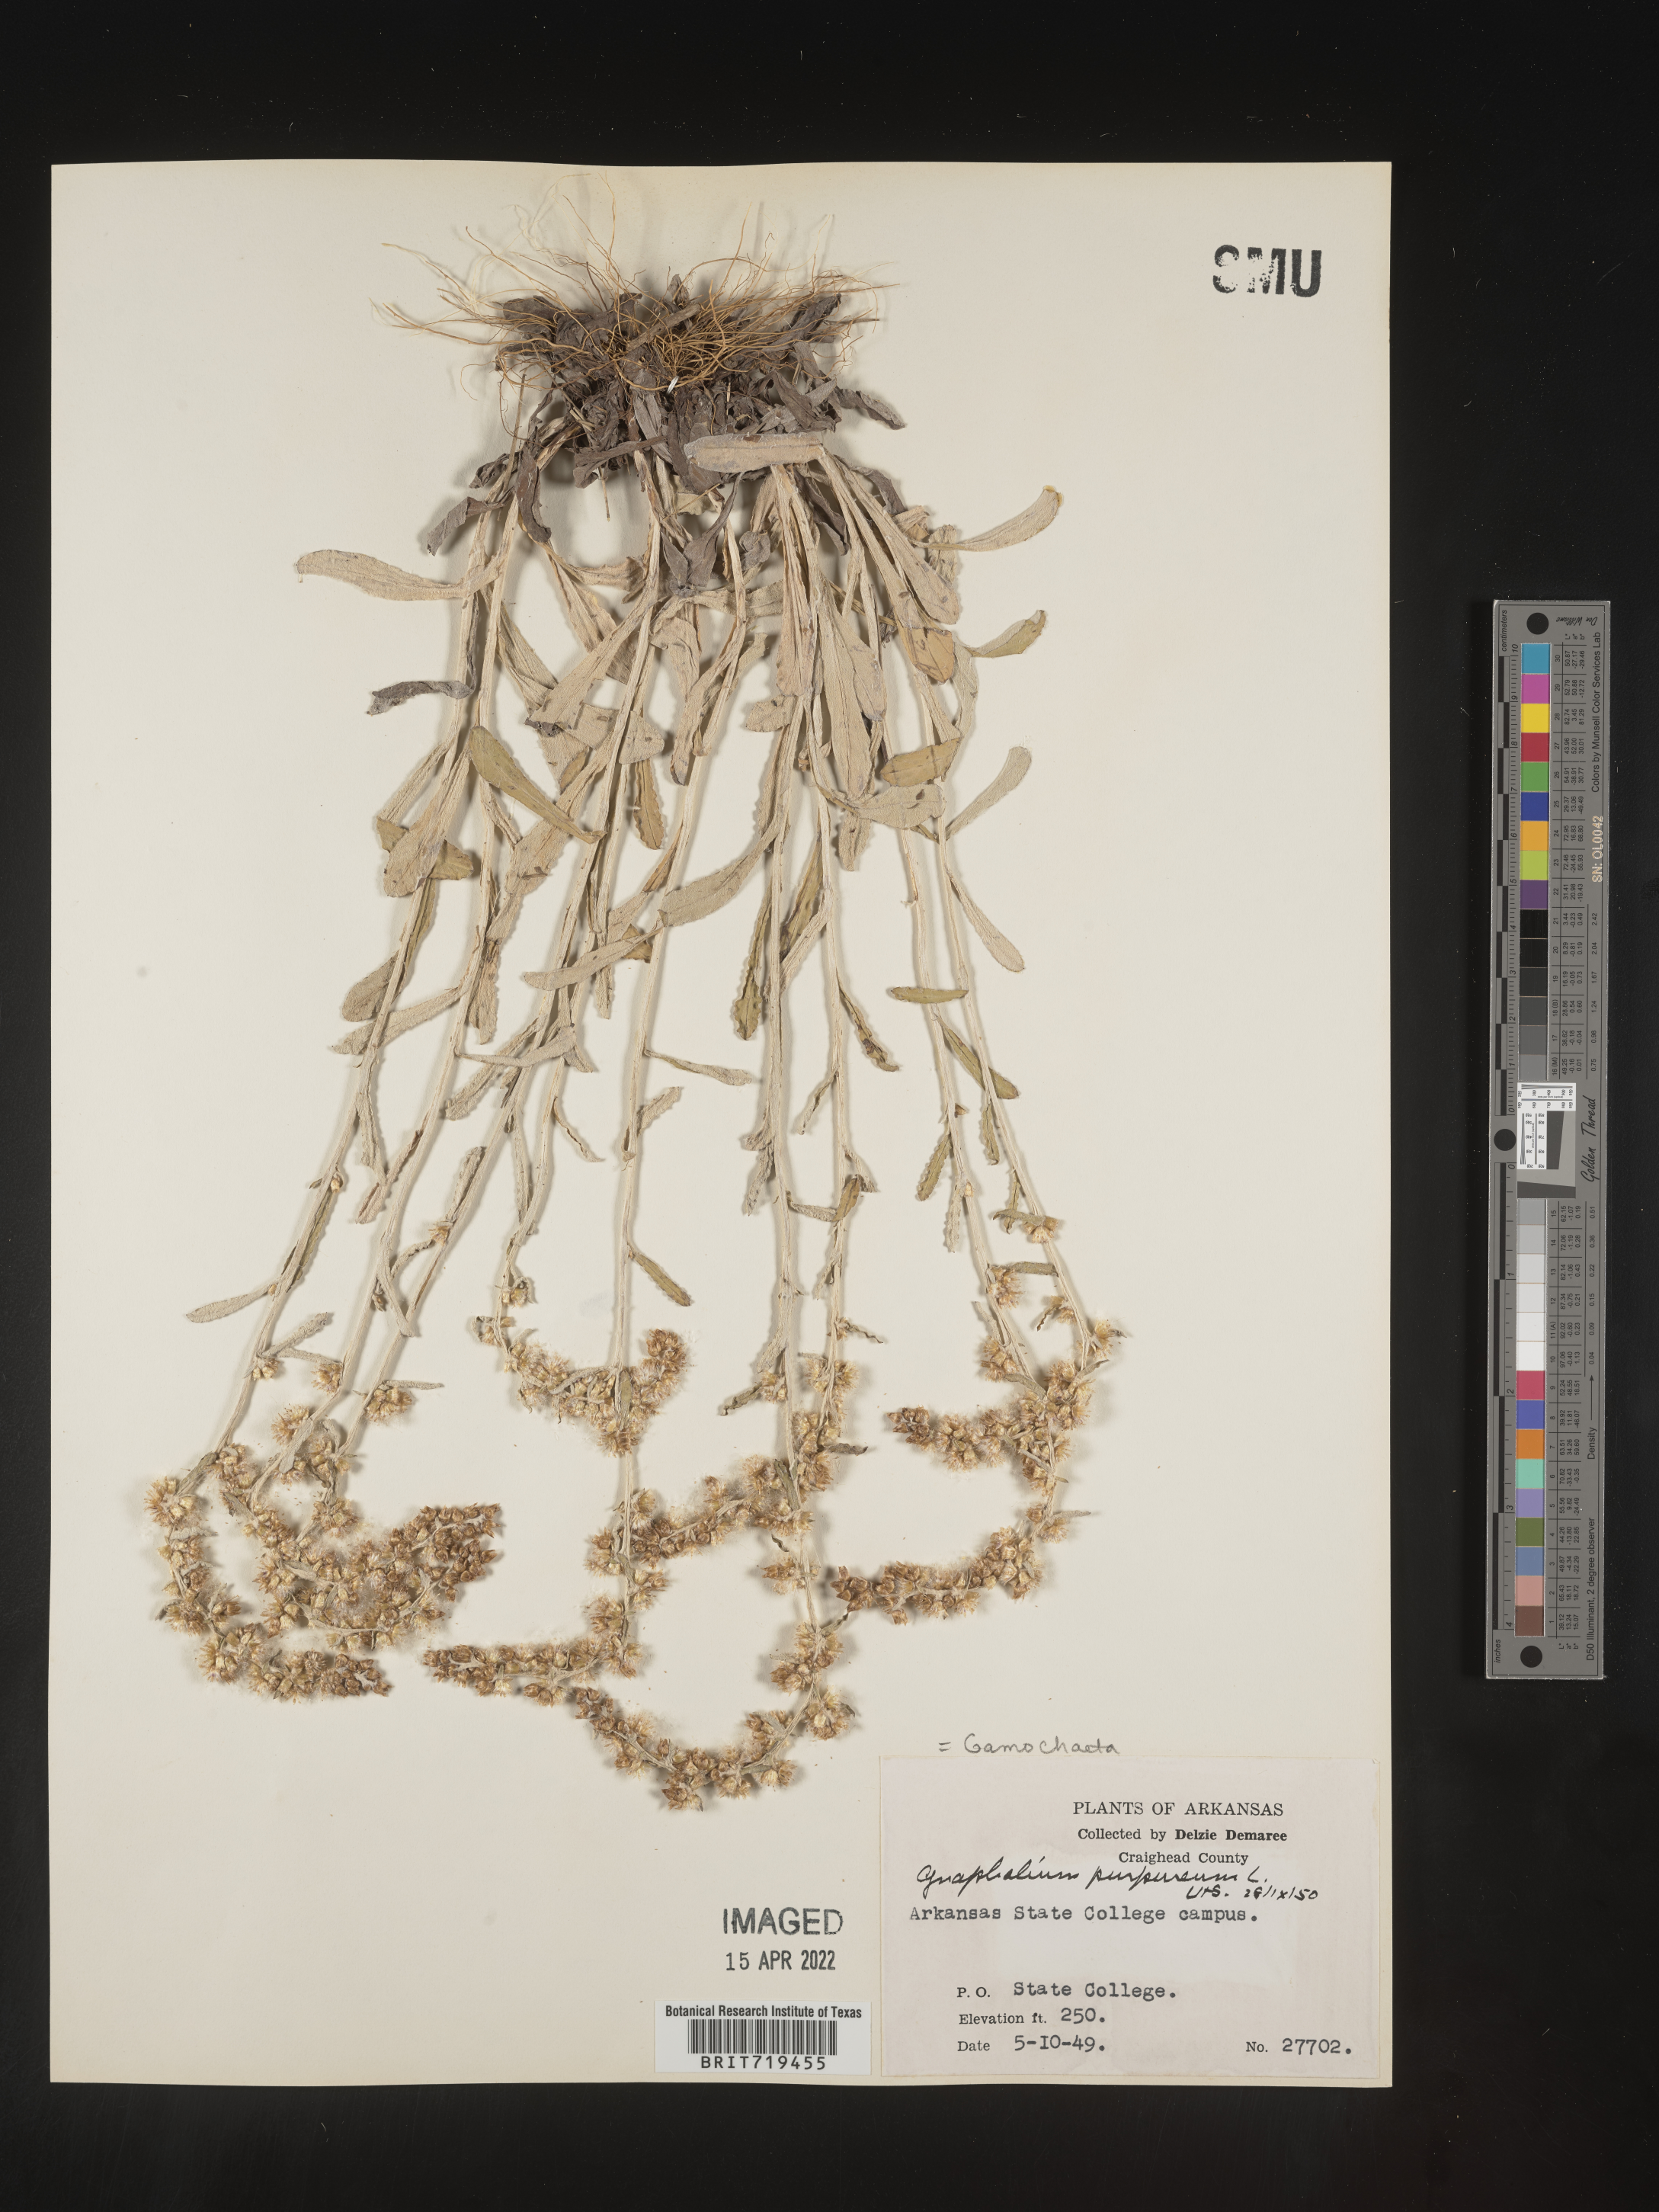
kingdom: Plantae
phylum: Tracheophyta
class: Magnoliopsida
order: Asterales
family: Asteraceae
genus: Gamochaeta
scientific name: Gamochaeta argyrinea
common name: Silvery cudweed
